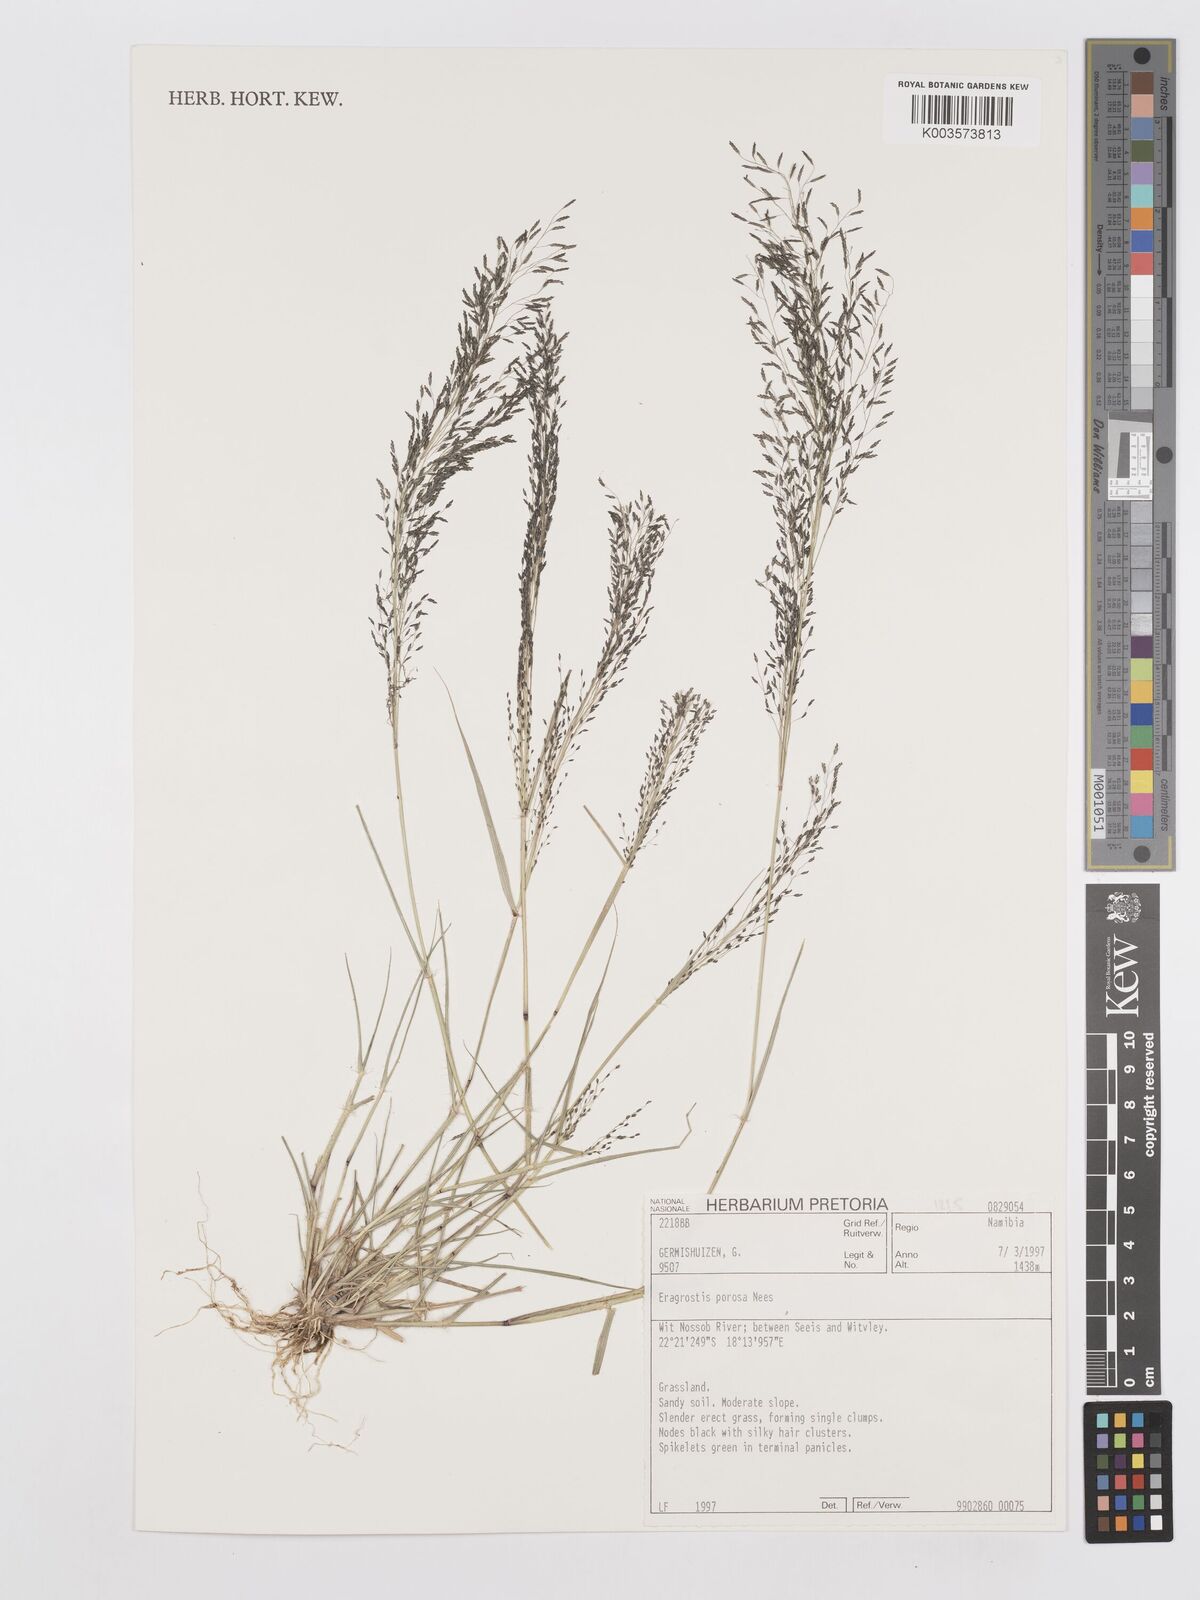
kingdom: Plantae
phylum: Tracheophyta
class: Liliopsida
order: Poales
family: Poaceae
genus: Eragrostis
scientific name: Eragrostis porosa
